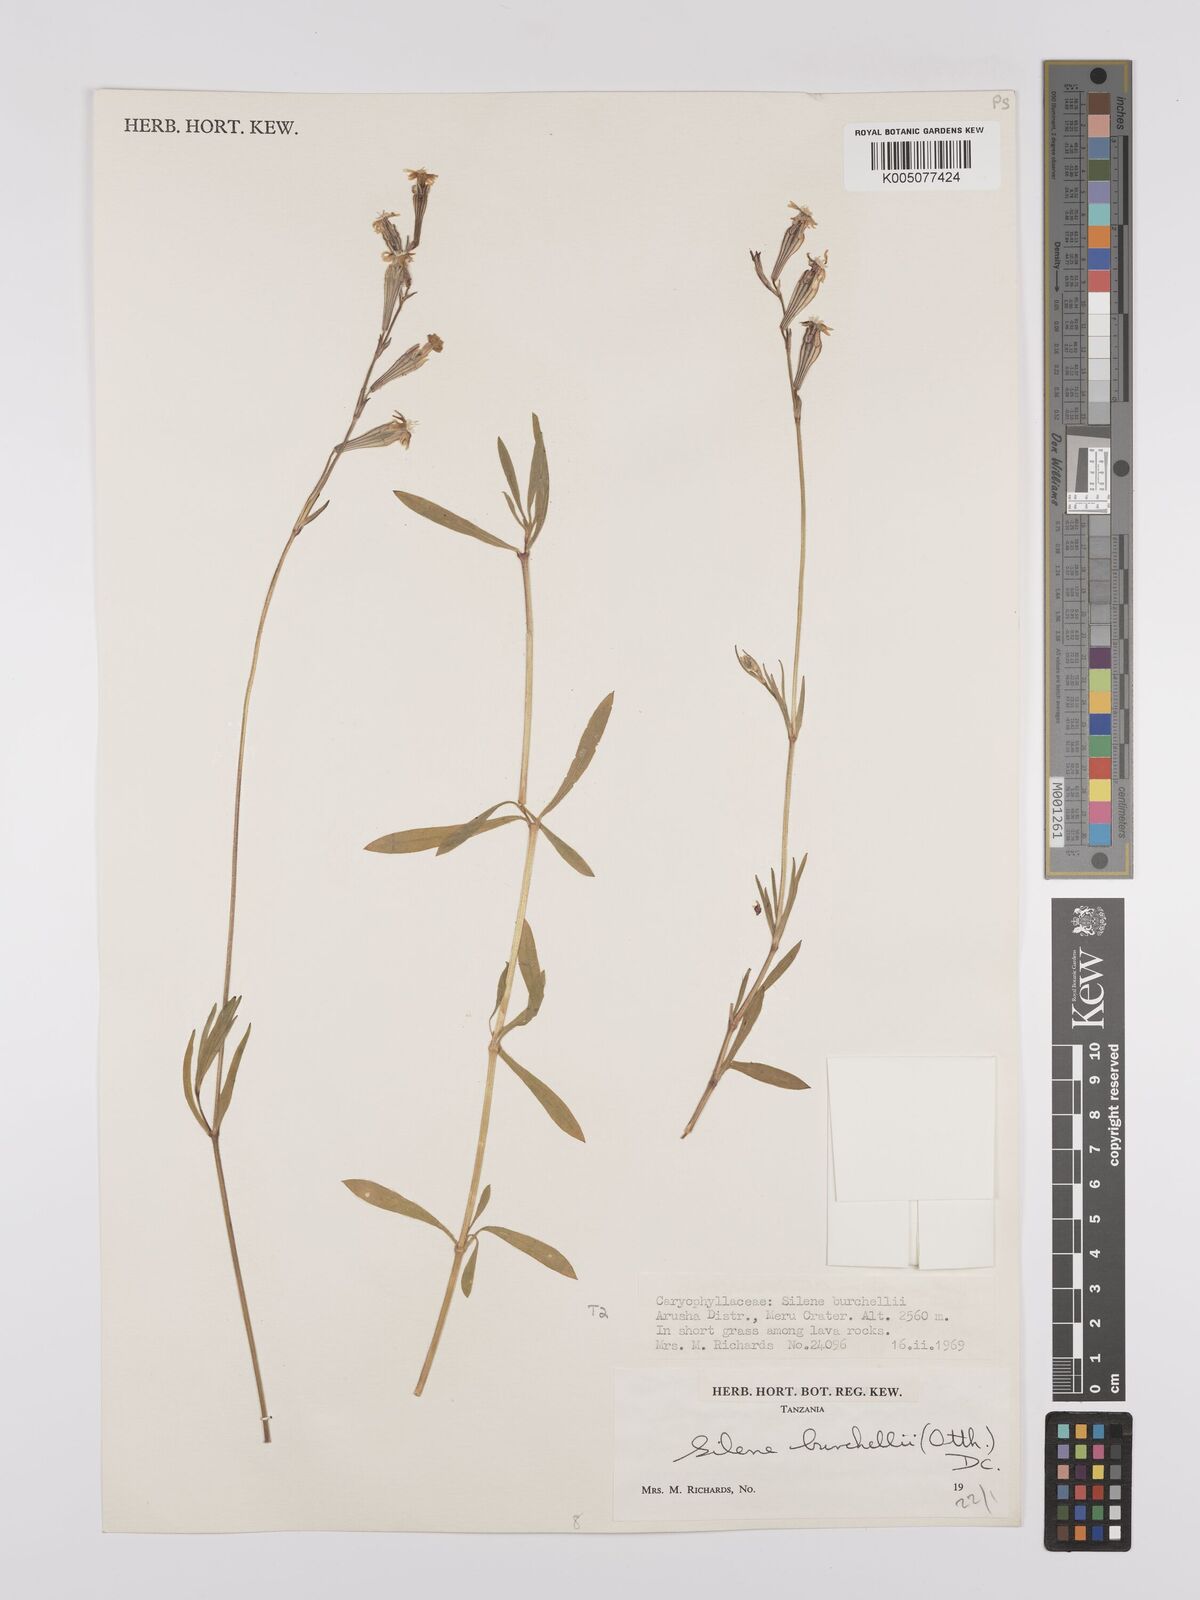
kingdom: Plantae
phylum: Tracheophyta
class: Magnoliopsida
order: Caryophyllales
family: Caryophyllaceae
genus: Silene
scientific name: Silene burchellii
